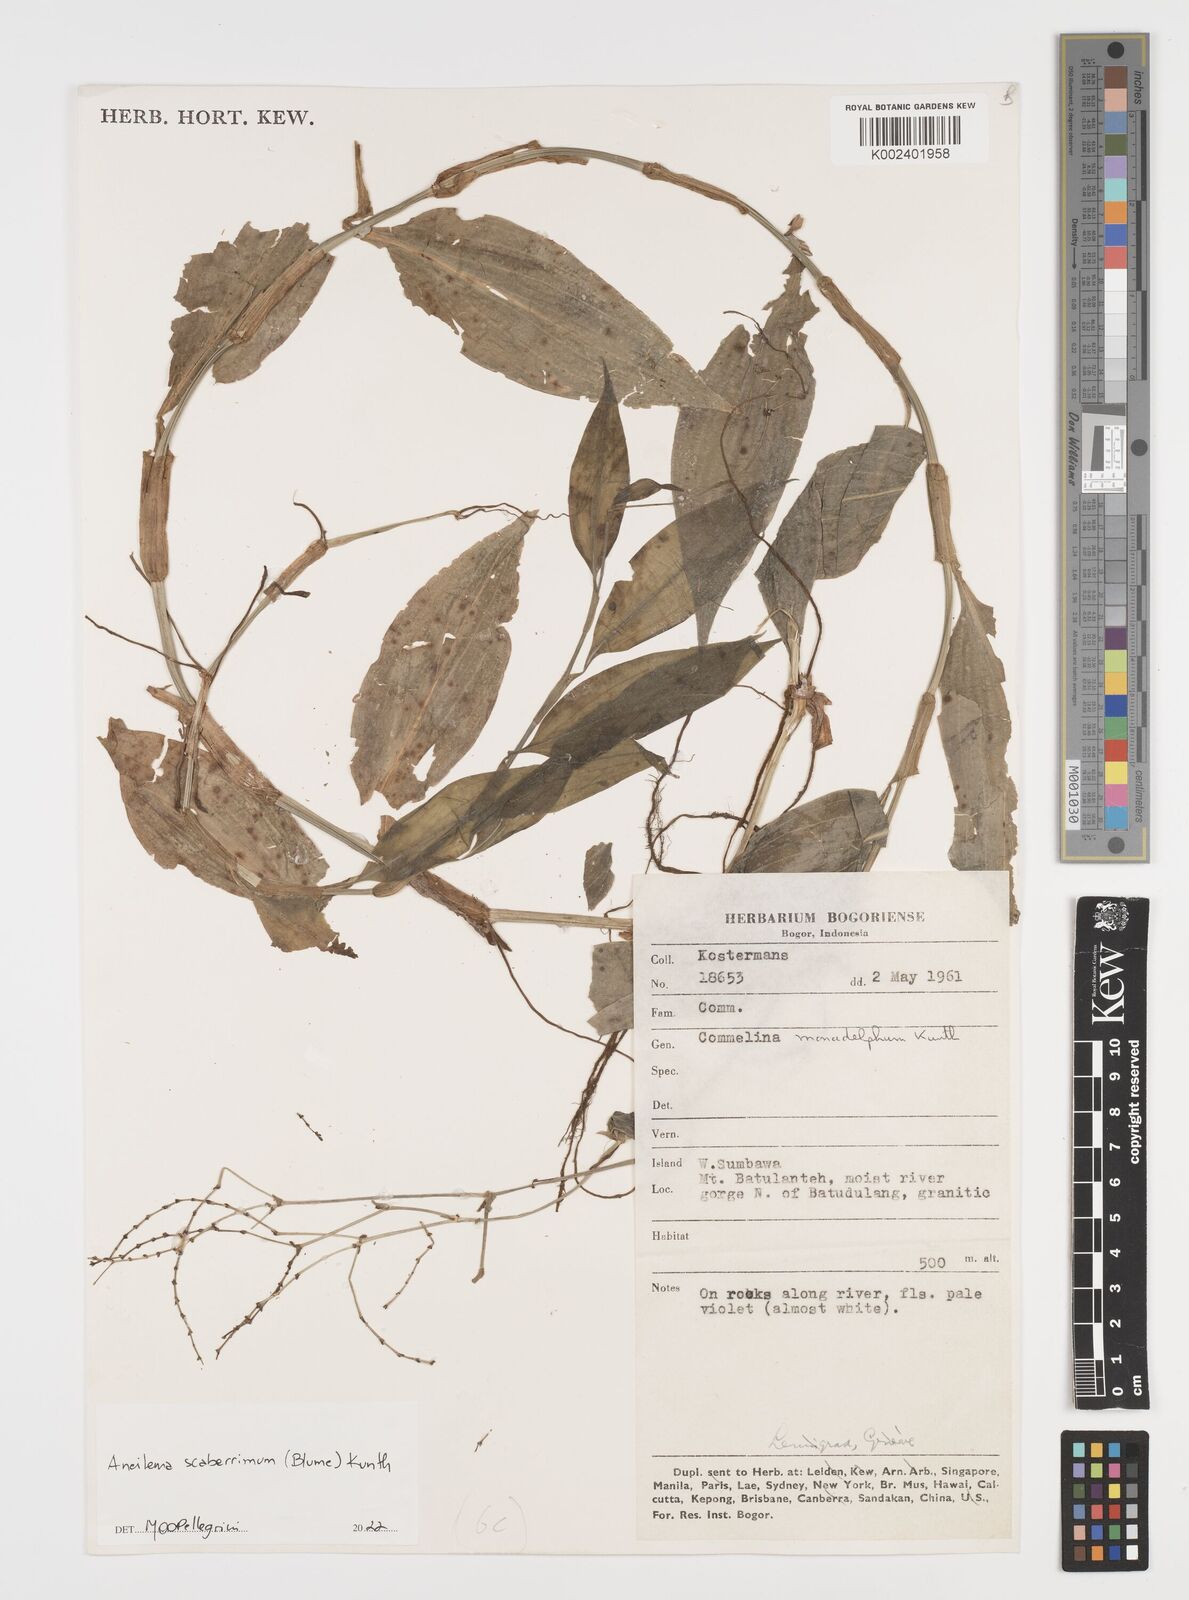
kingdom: Plantae
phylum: Tracheophyta
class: Liliopsida
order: Commelinales
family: Commelinaceae
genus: Rhopalephora
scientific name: Rhopalephora
